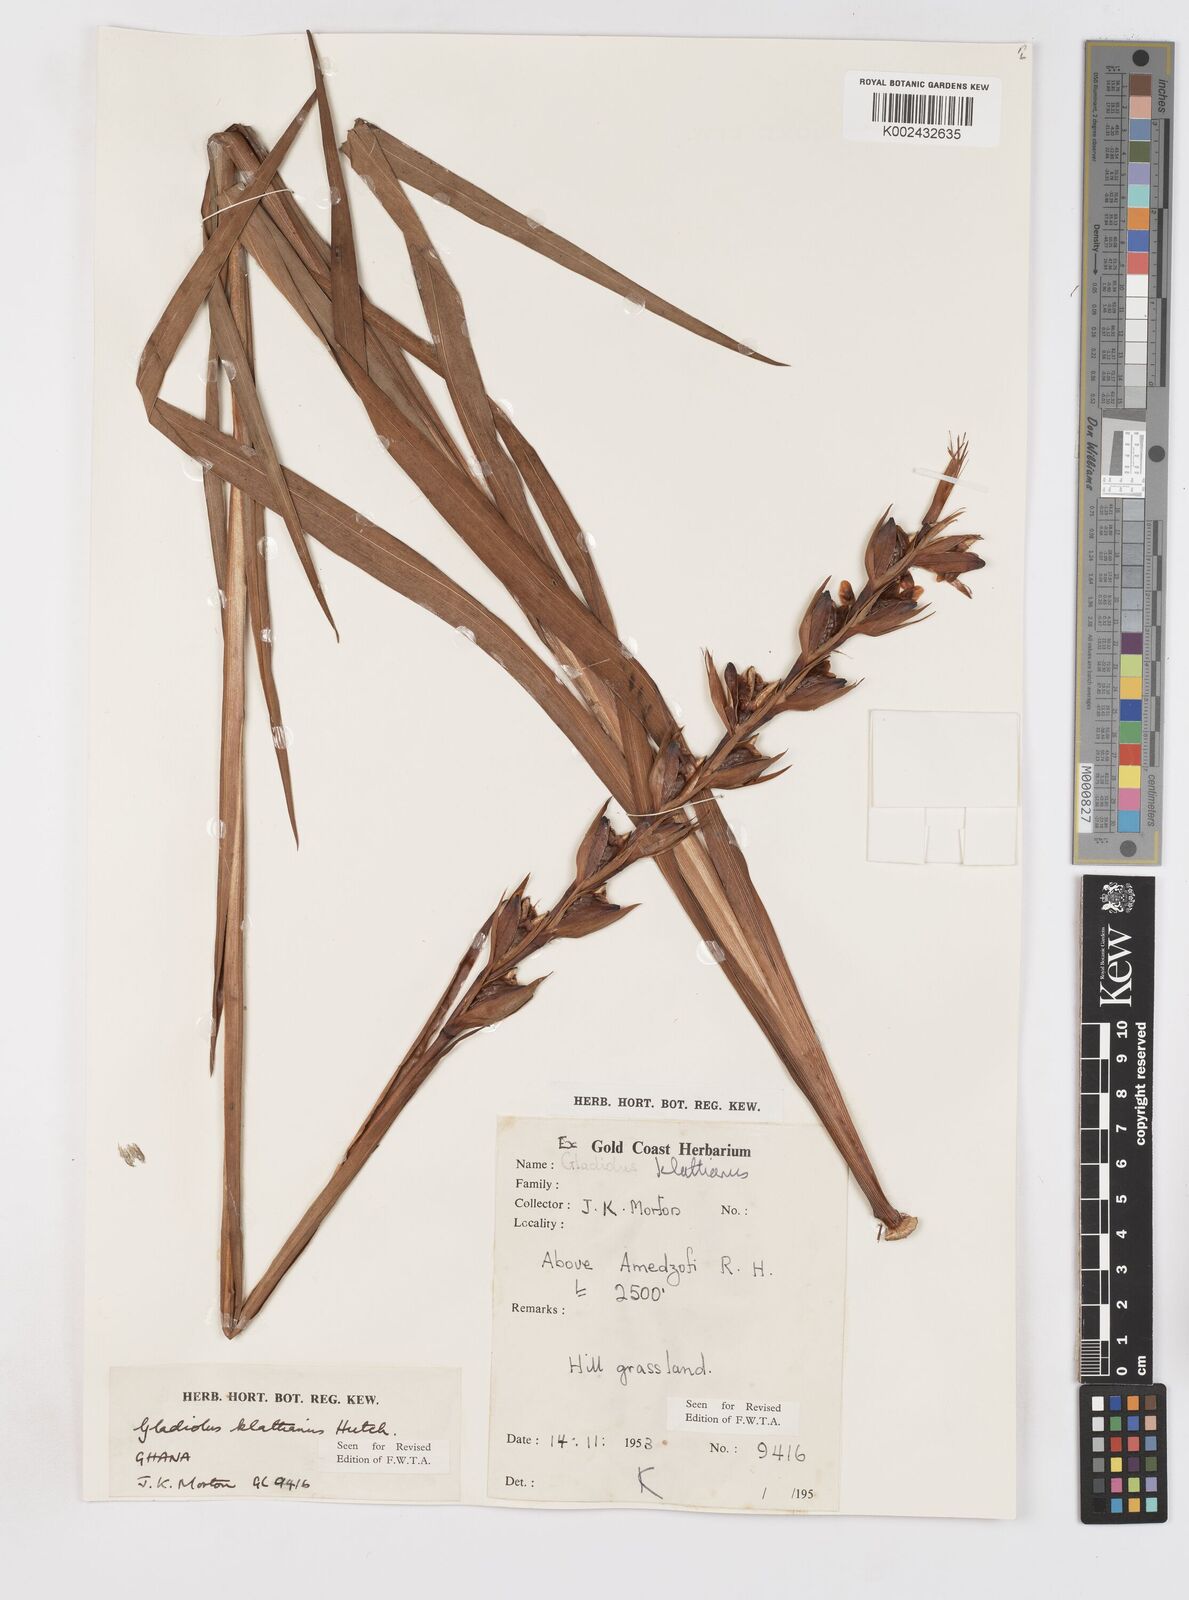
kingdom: Plantae
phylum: Tracheophyta
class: Liliopsida
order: Asparagales
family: Iridaceae
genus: Gladiolus
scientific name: Gladiolus gregarius
